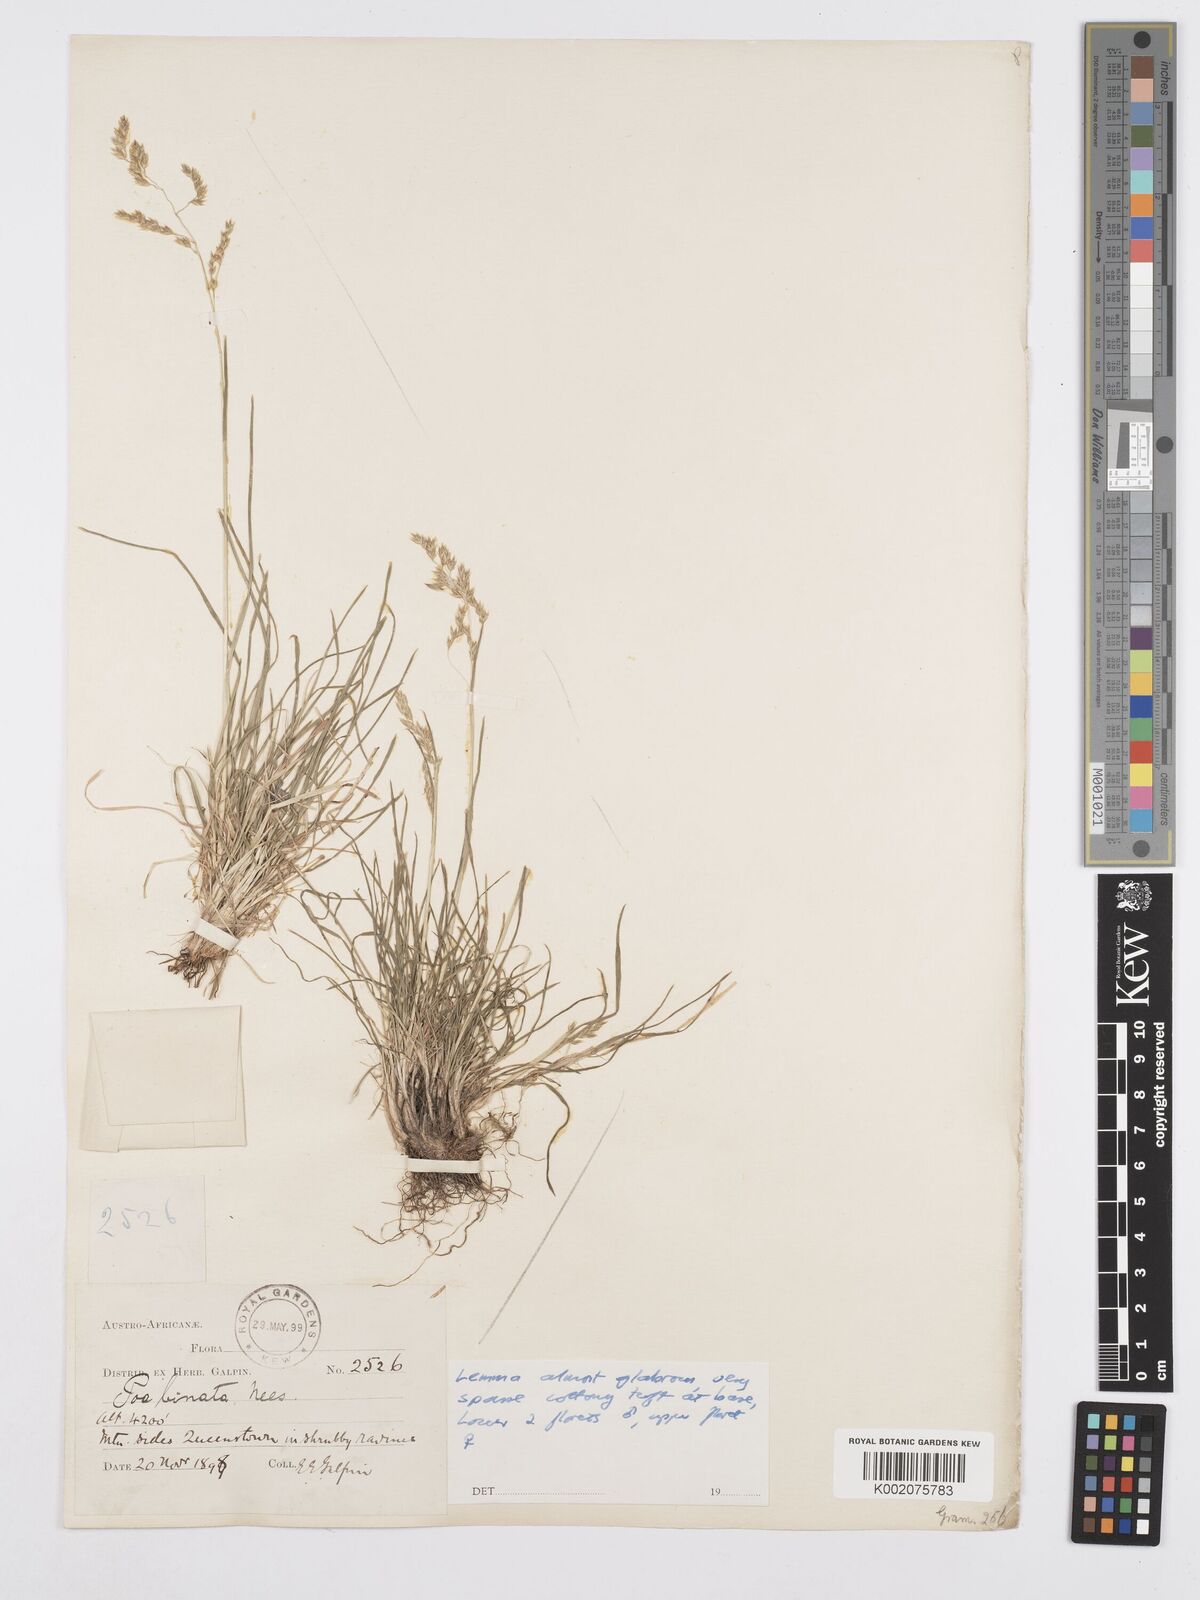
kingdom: Plantae
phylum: Tracheophyta
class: Liliopsida
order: Poales
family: Poaceae
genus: Poa
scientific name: Poa binata
